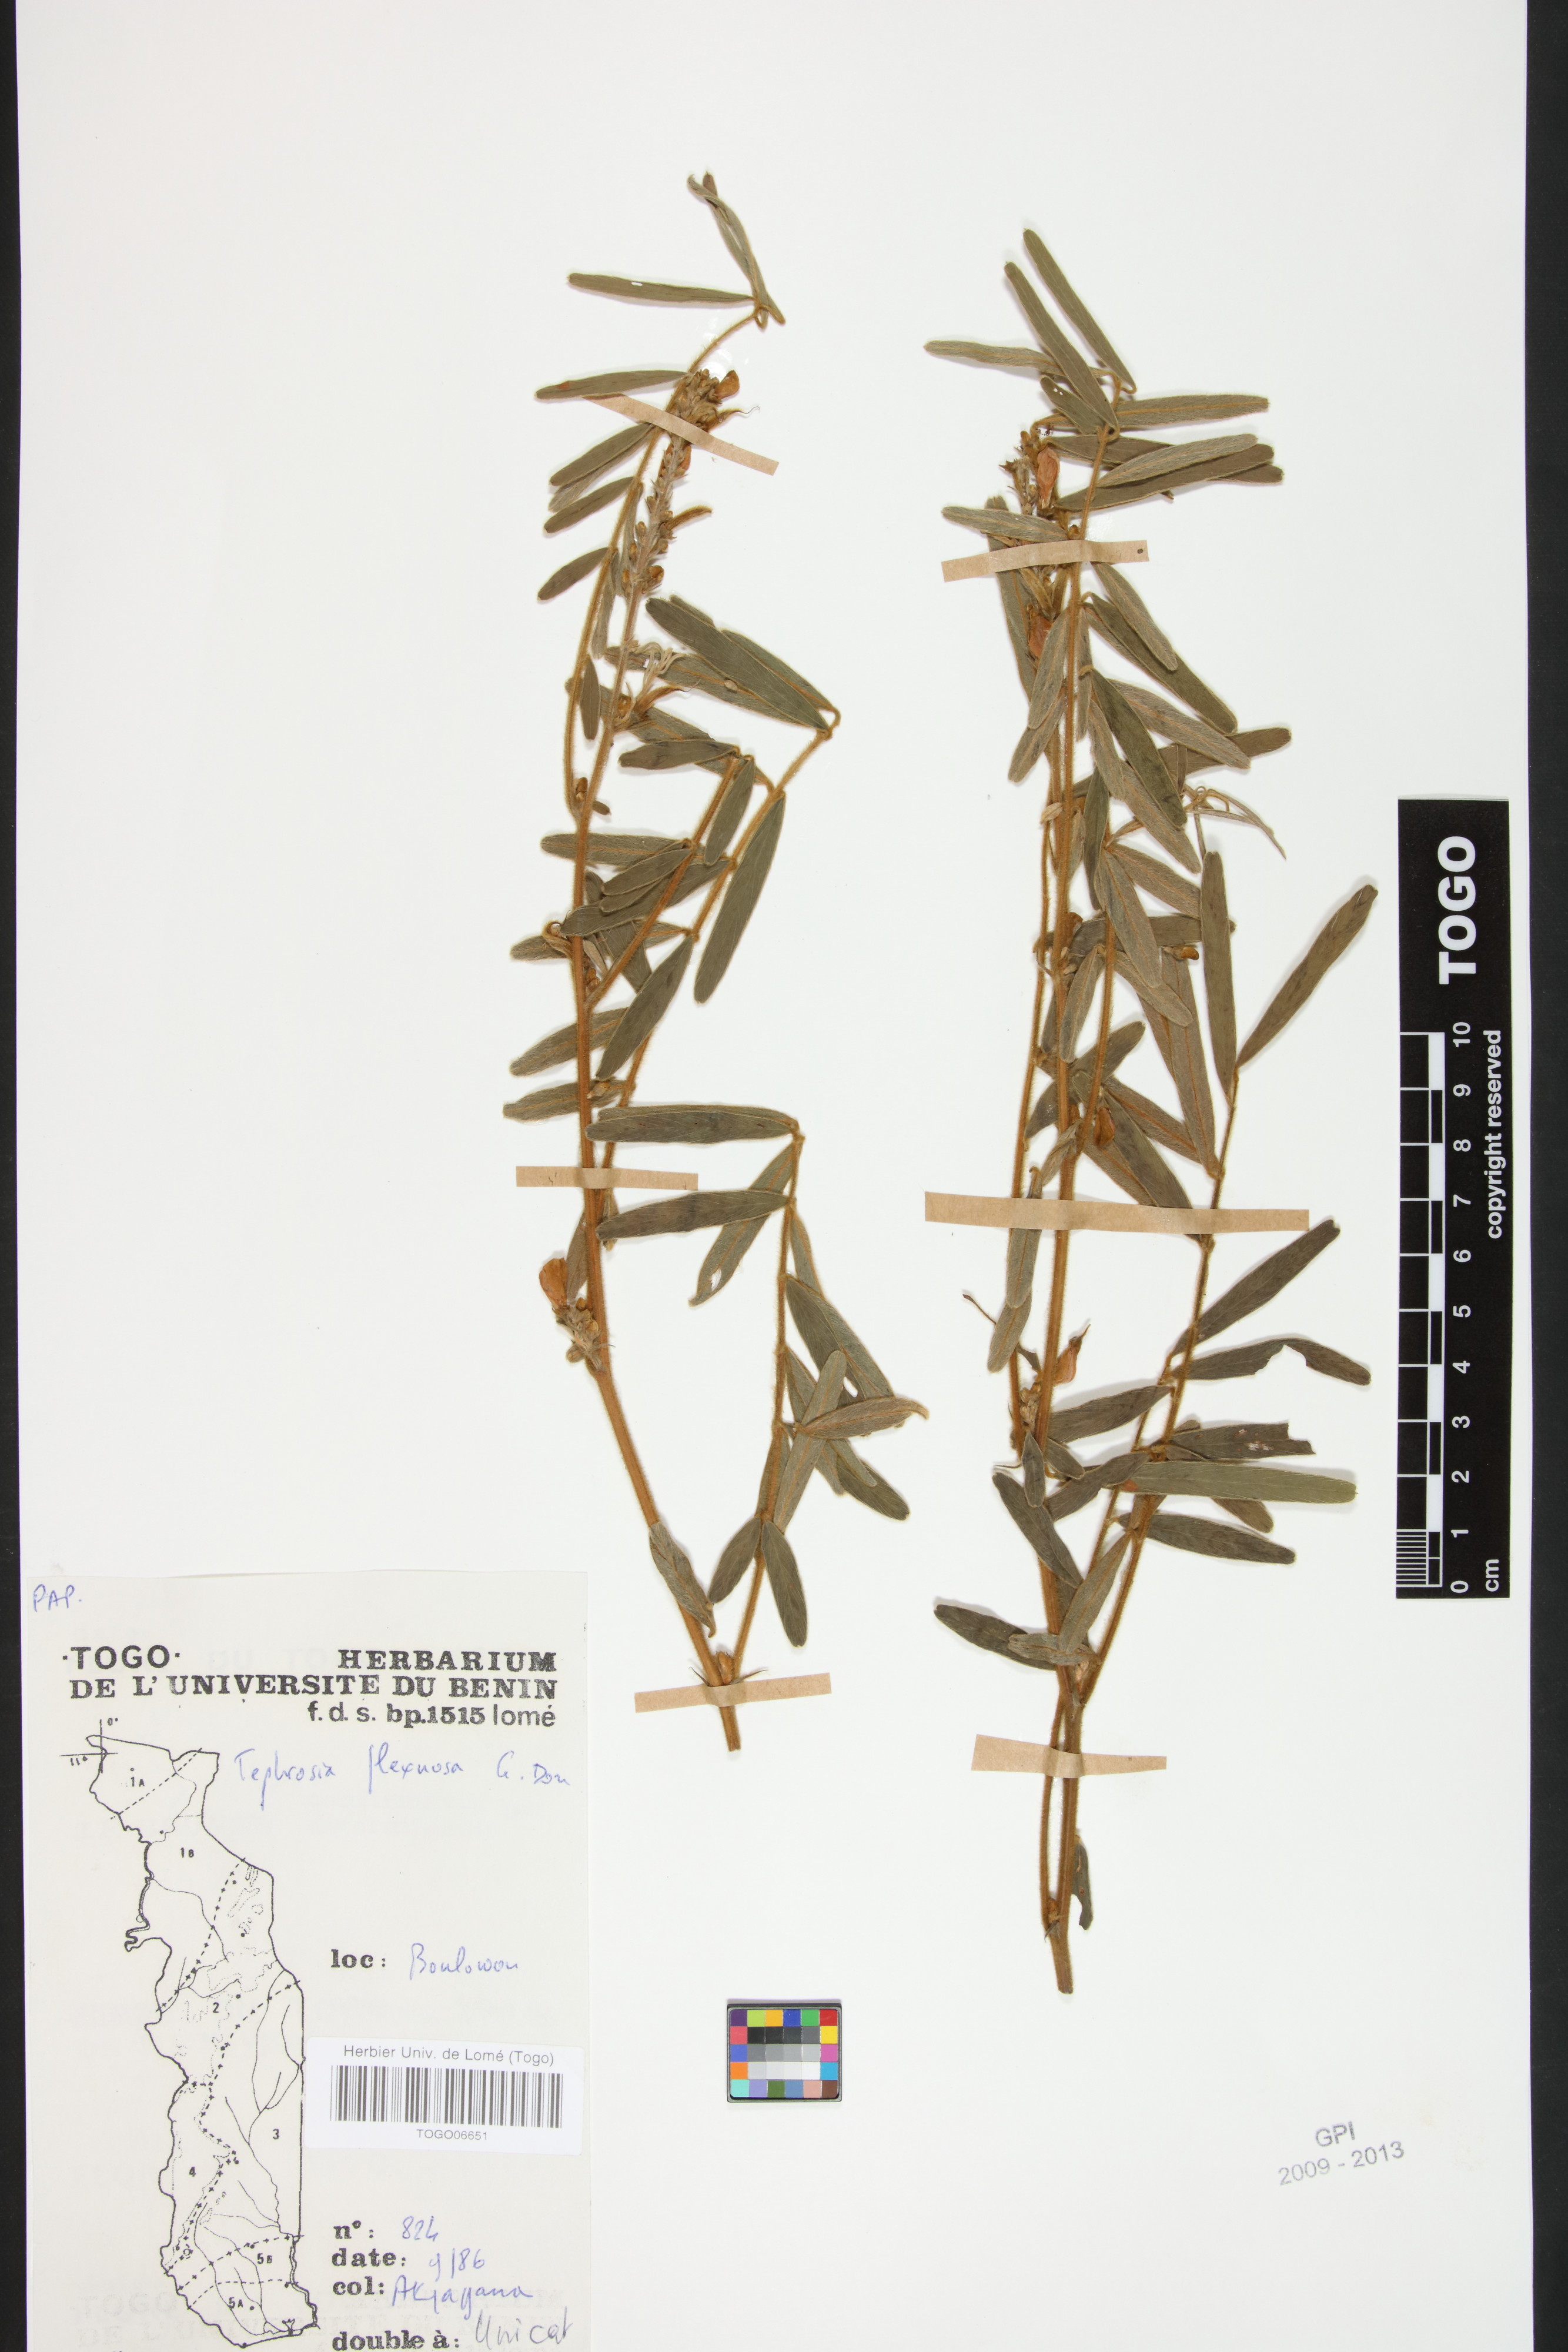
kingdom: Plantae
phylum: Tracheophyta
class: Magnoliopsida
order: Fabales
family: Fabaceae
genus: Tephrosia
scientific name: Tephrosia flexuosa
